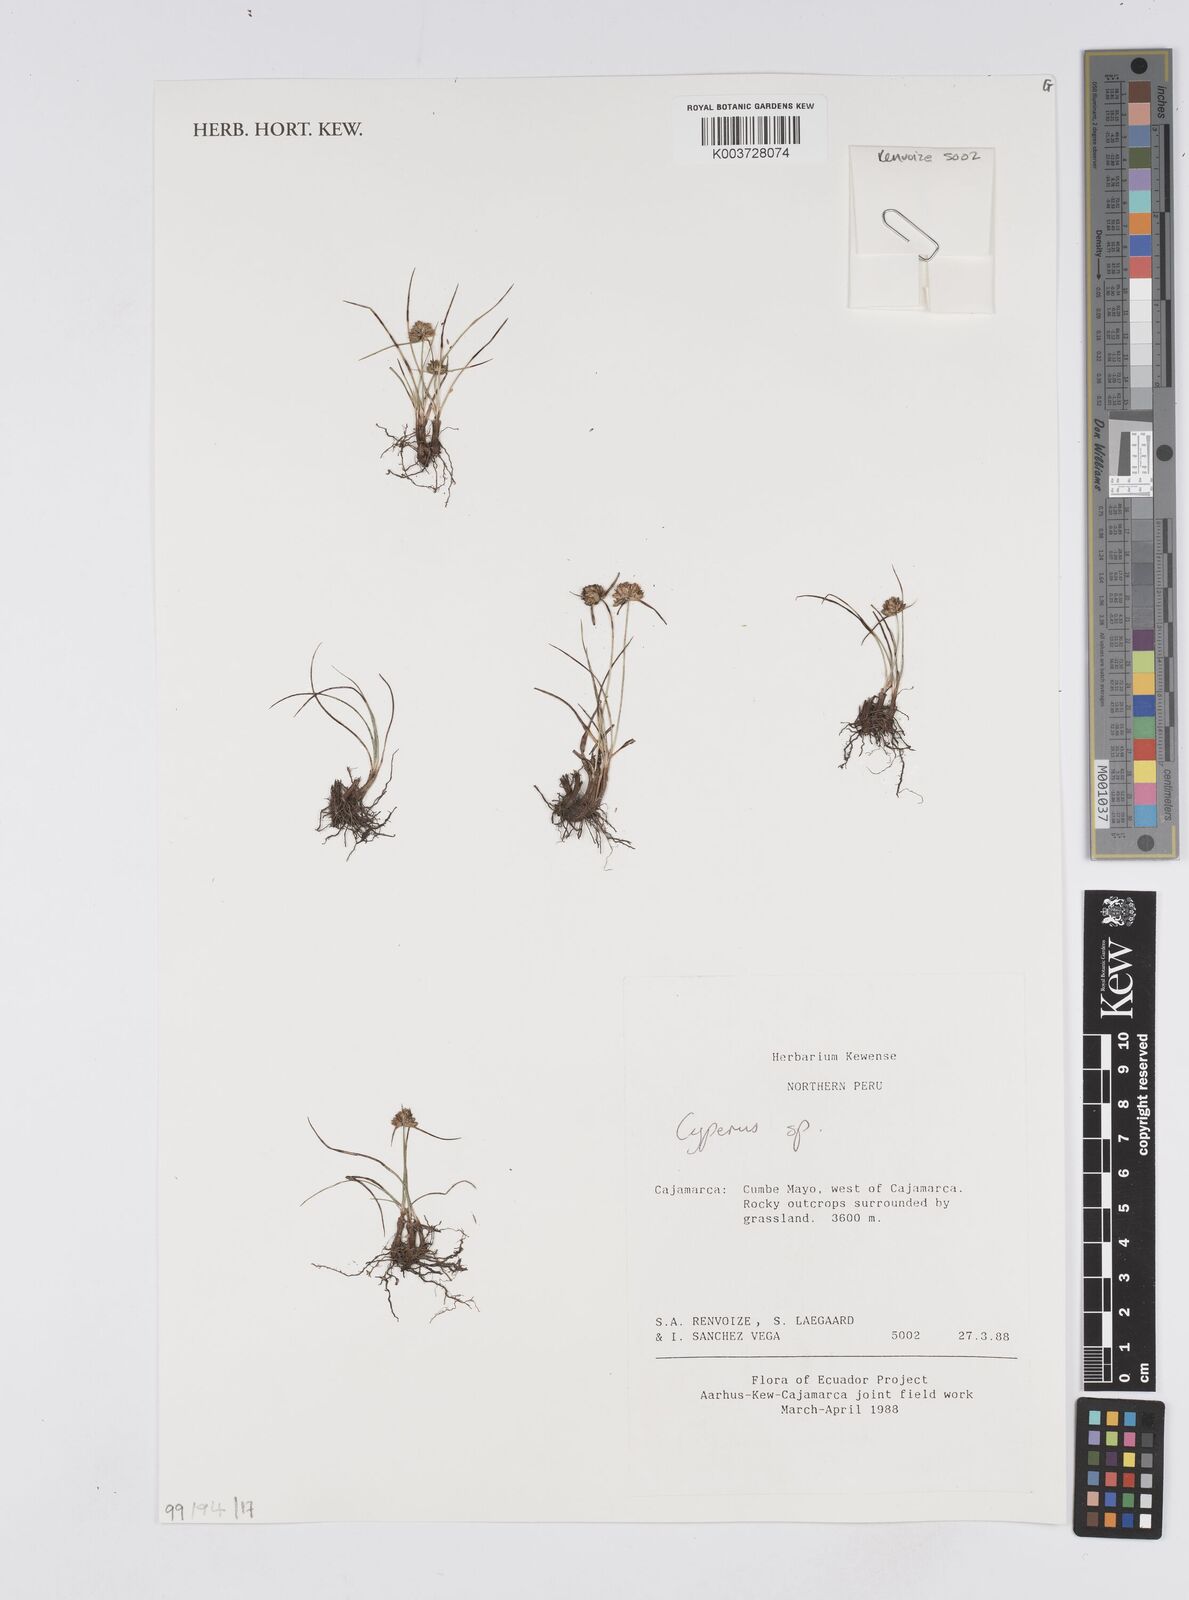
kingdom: Plantae
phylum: Tracheophyta
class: Liliopsida
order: Poales
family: Cyperaceae
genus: Cyperus
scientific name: Cyperus
